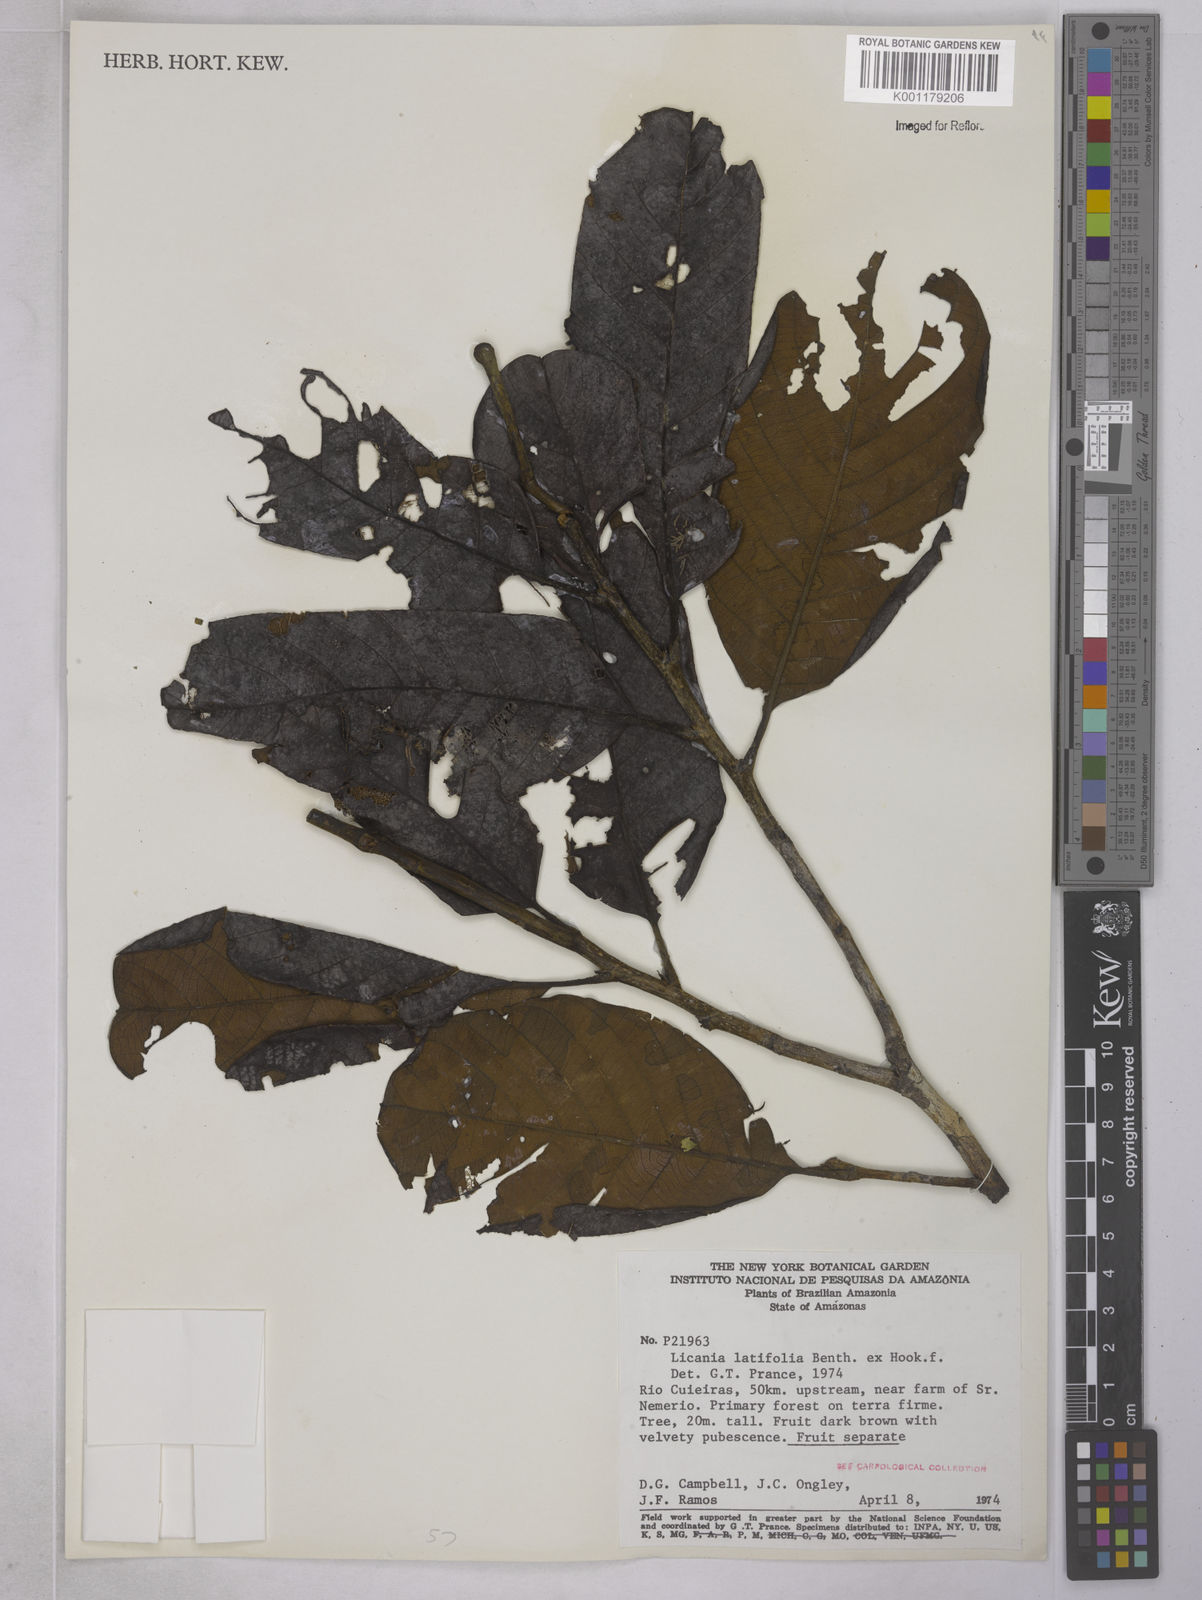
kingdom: Plantae
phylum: Tracheophyta
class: Magnoliopsida
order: Malpighiales
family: Chrysobalanaceae
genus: Hymenopus
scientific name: Hymenopus latifolius
